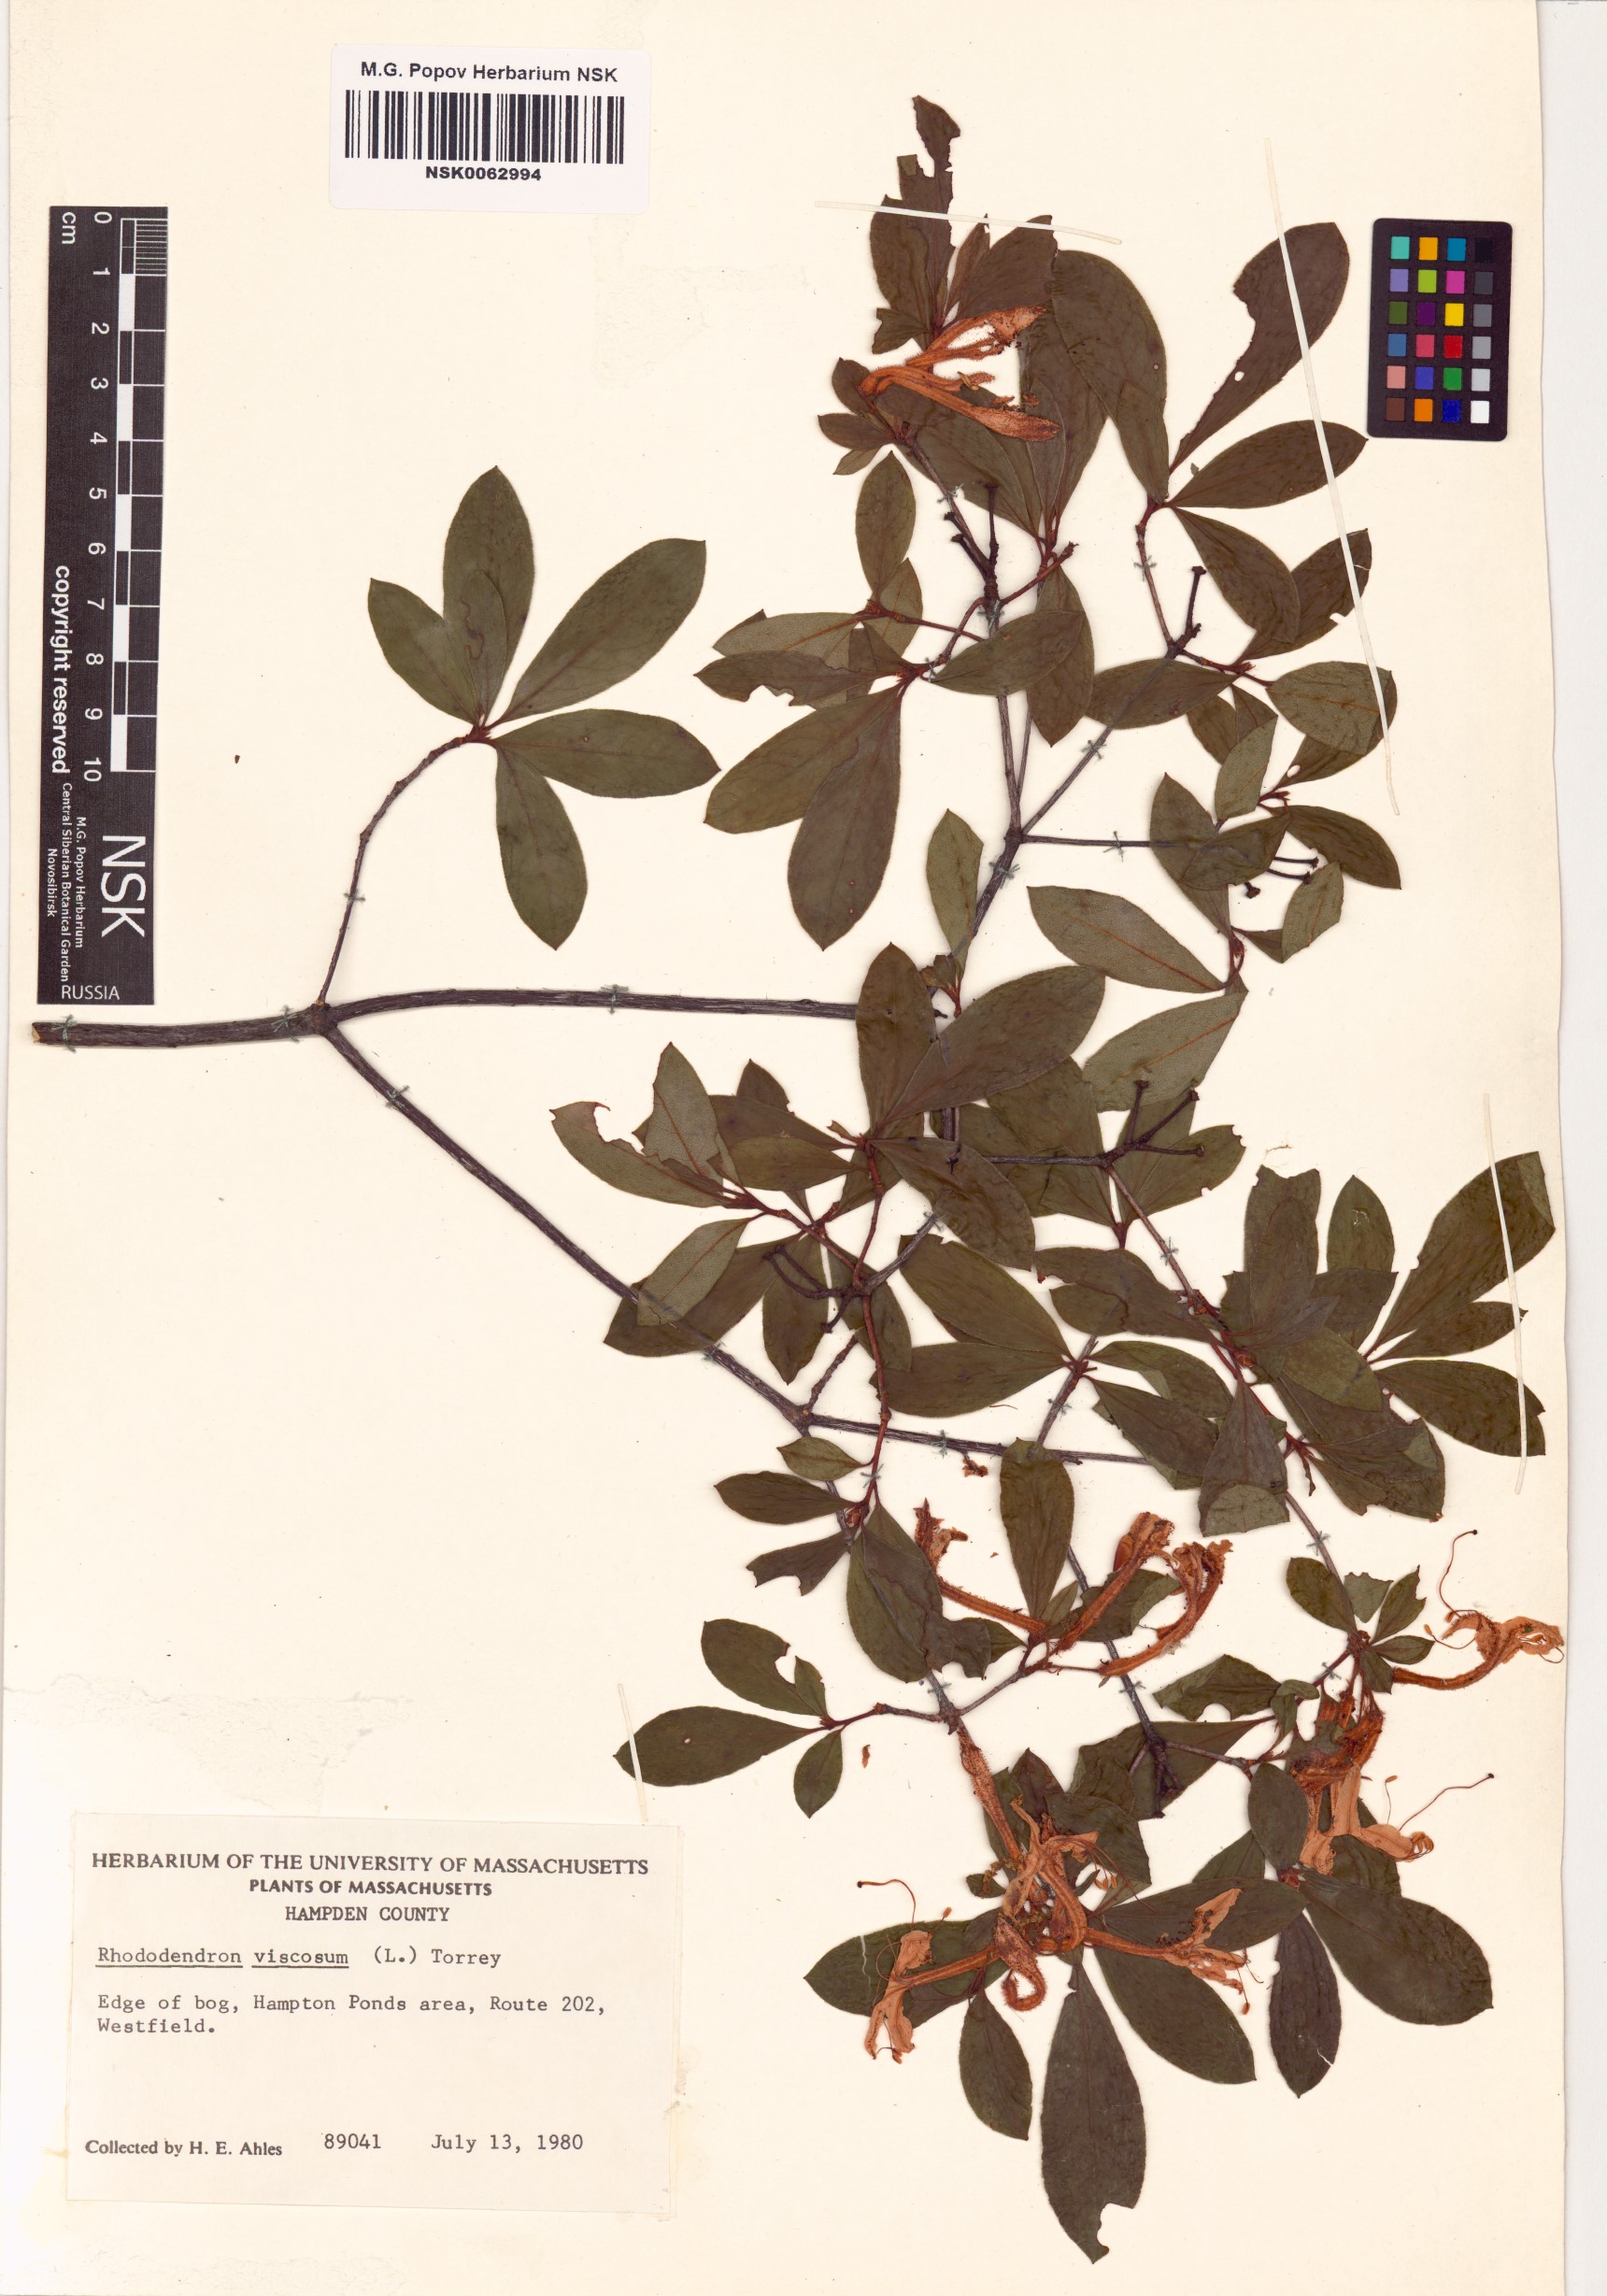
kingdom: Plantae
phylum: Tracheophyta
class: Magnoliopsida
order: Ericales
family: Ericaceae
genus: Rhododendron
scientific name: Rhododendron viscosum
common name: Clammy azalea
